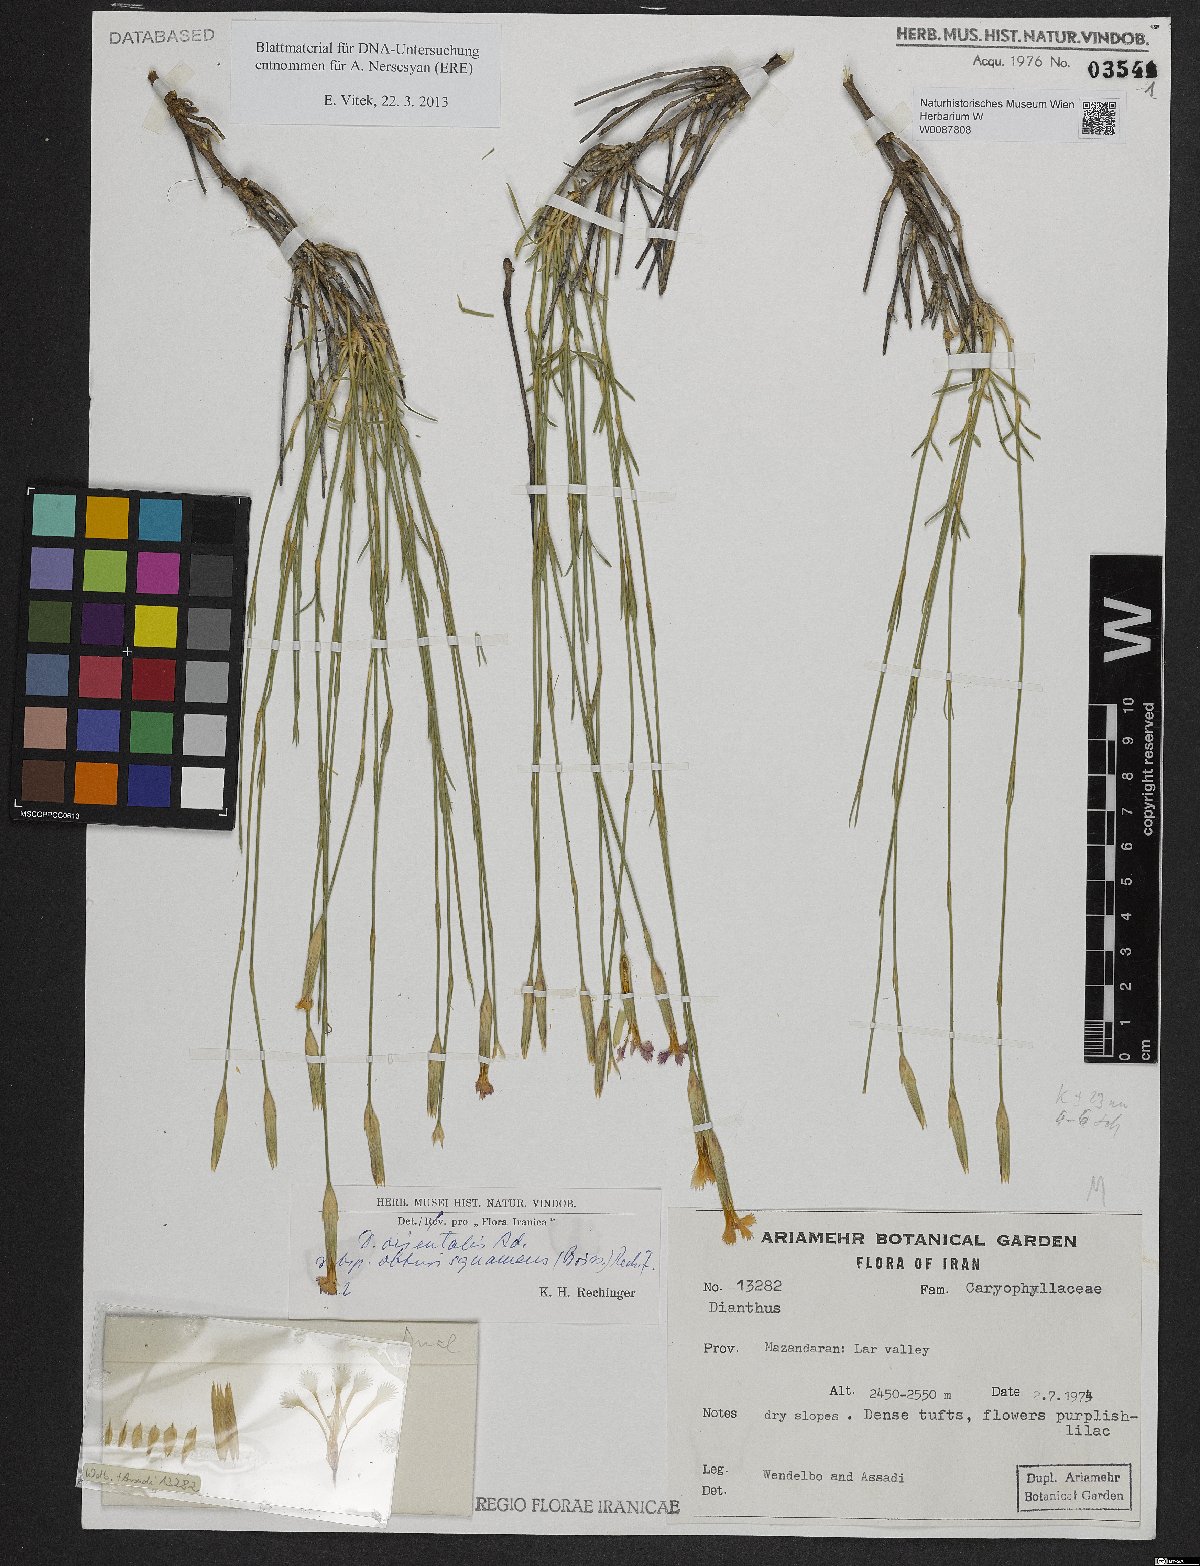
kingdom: Plantae
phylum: Tracheophyta
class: Magnoliopsida
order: Caryophyllales
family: Caryophyllaceae
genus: Dianthus
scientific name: Dianthus orientalis
